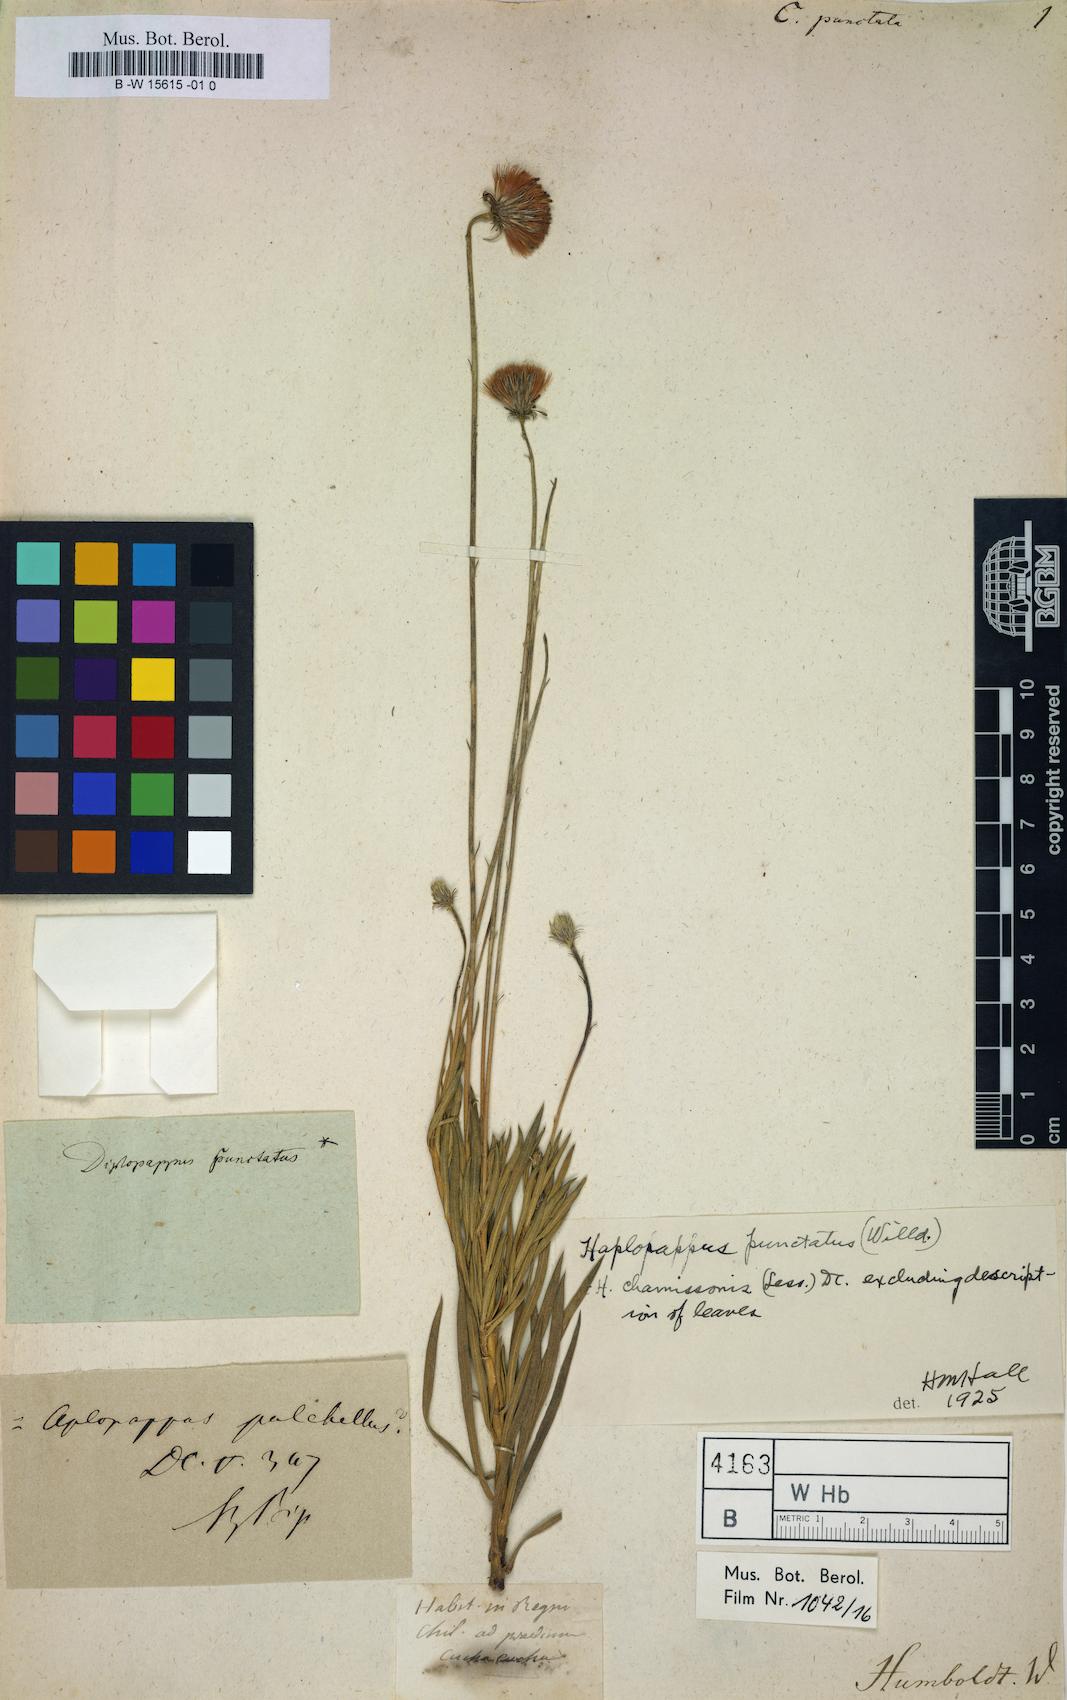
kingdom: Plantae
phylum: Tracheophyta
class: Magnoliopsida
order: Asterales
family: Asteraceae
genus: Haplopappus
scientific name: Haplopappus punctatus
